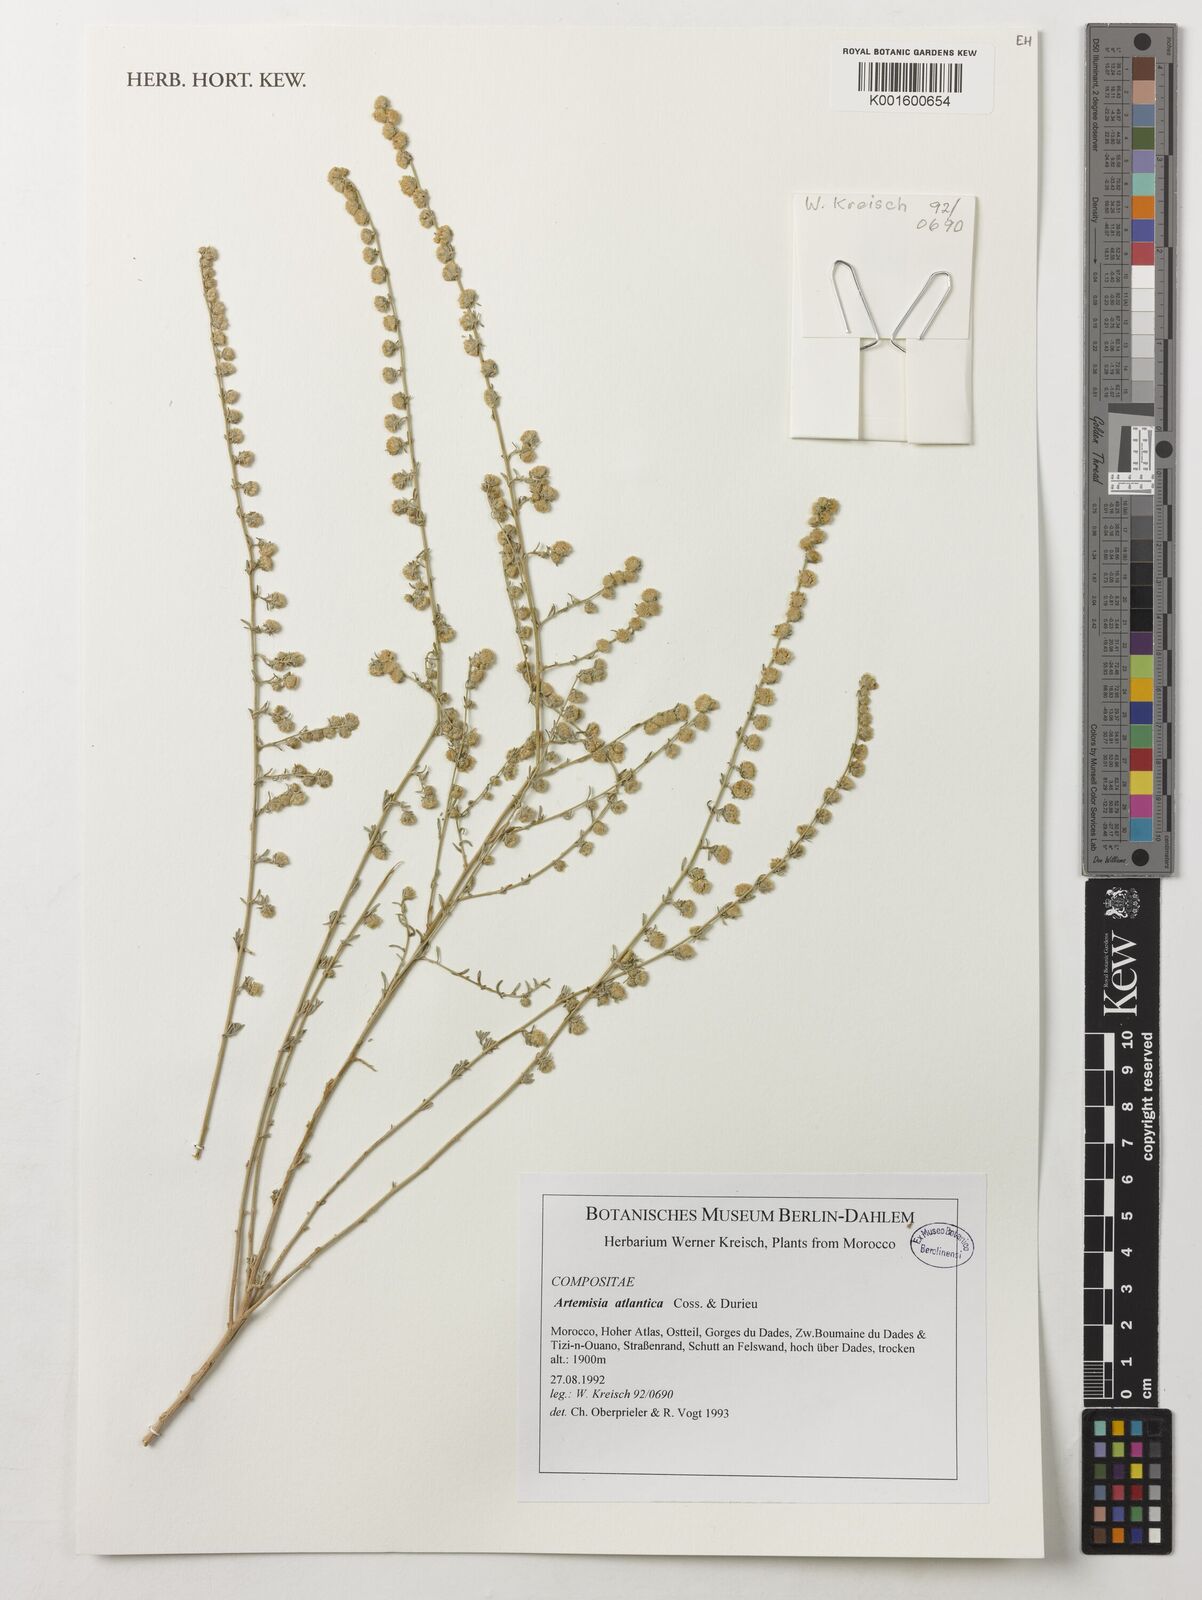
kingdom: Plantae
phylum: Tracheophyta
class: Magnoliopsida
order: Asterales
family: Asteraceae
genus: Artemisia
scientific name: Artemisia atlantica
